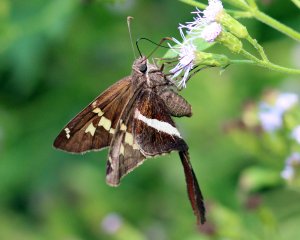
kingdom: Animalia
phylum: Arthropoda
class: Insecta
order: Lepidoptera
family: Hesperiidae
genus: Chioides
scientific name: Chioides catillus
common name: White-striped Longtail
